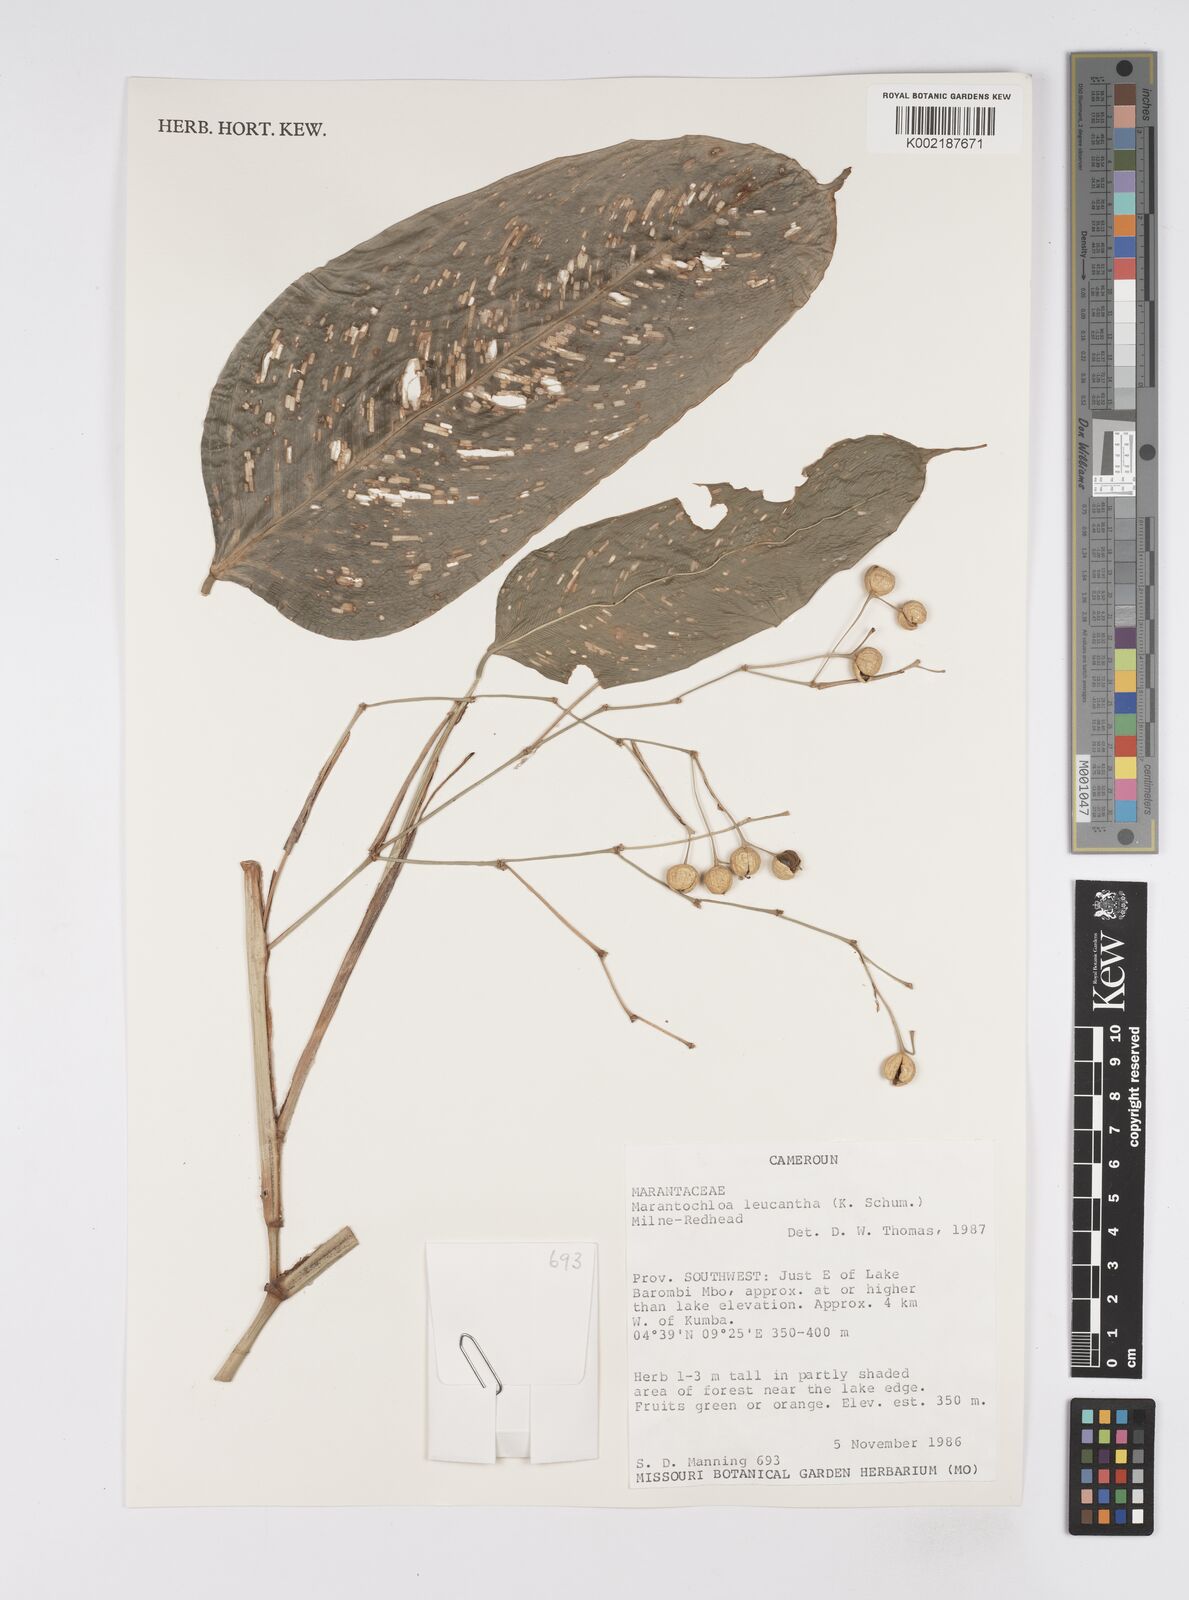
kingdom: Plantae
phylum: Tracheophyta
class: Liliopsida
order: Zingiberales
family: Marantaceae
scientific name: Marantaceae
